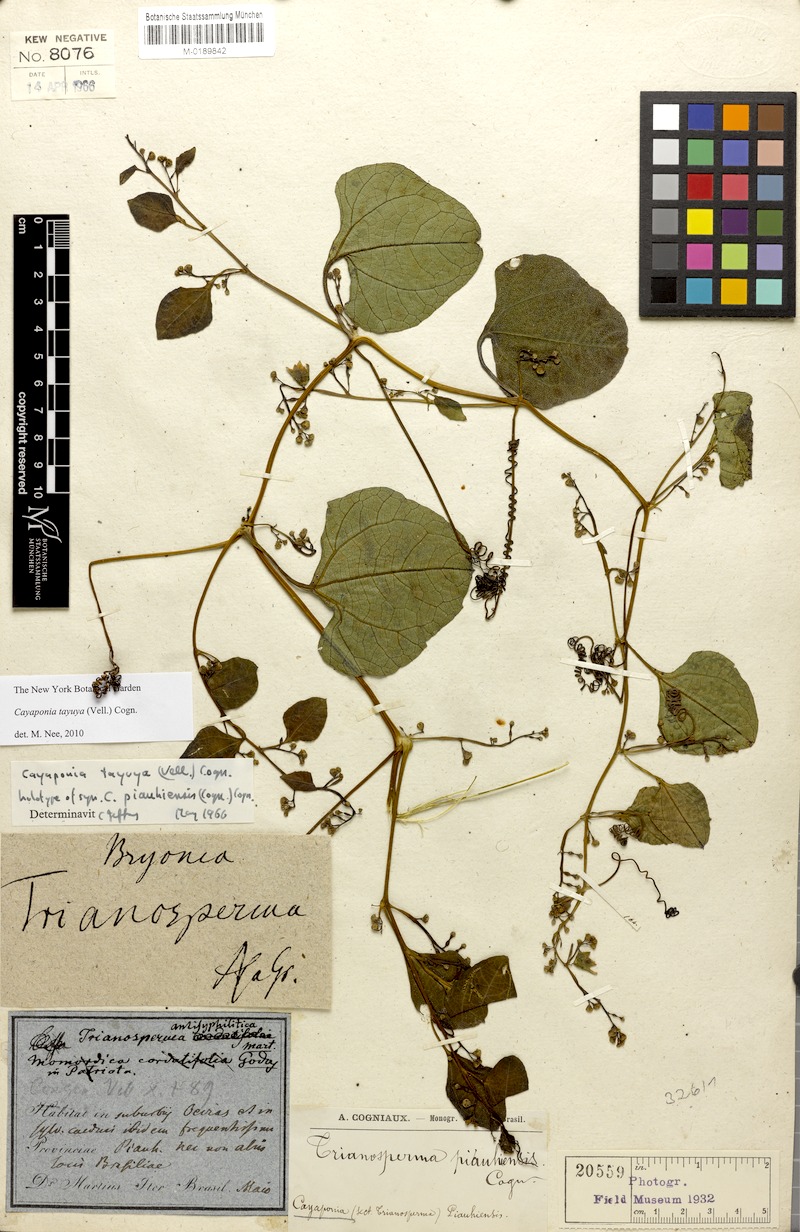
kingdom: Plantae
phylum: Tracheophyta
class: Magnoliopsida
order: Cucurbitales
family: Cucurbitaceae
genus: Cayaponia
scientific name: Cayaponia tayuya
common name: Tayuya
